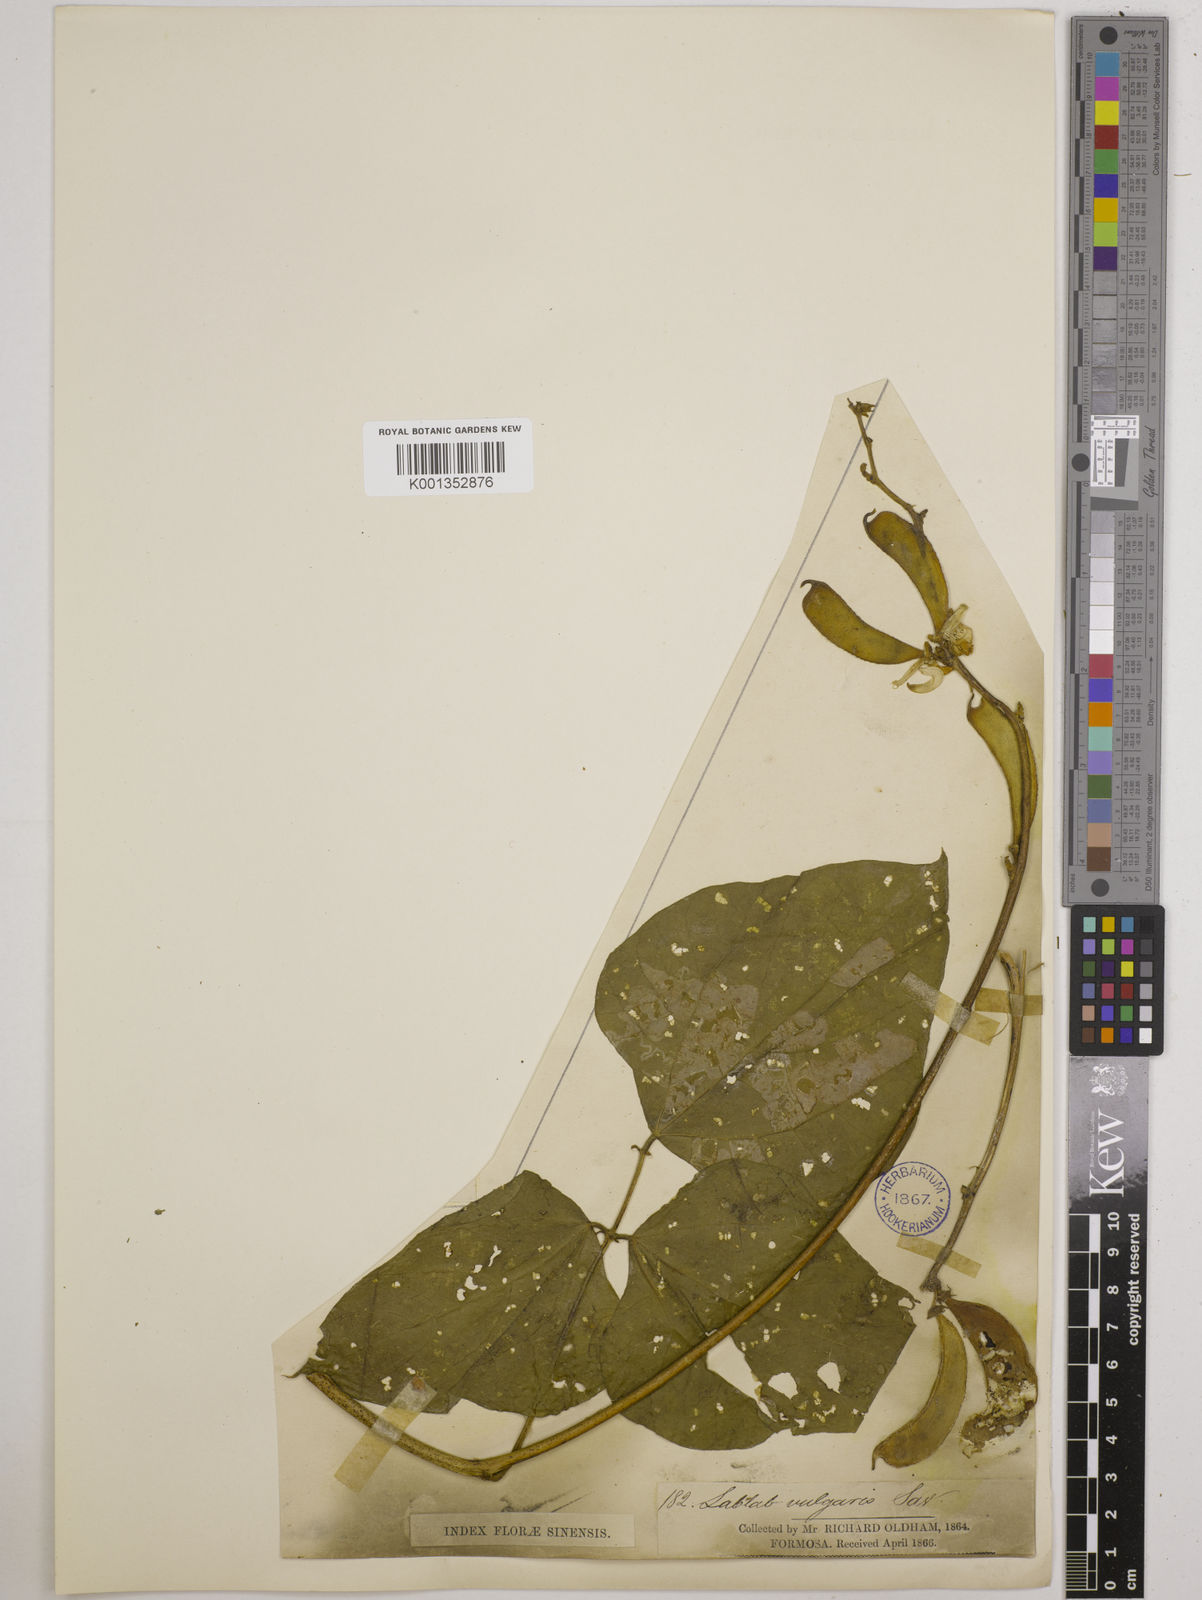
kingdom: Plantae
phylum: Tracheophyta
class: Magnoliopsida
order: Fabales
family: Fabaceae
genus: Lablab
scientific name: Lablab purpureus
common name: Lablab-bean
